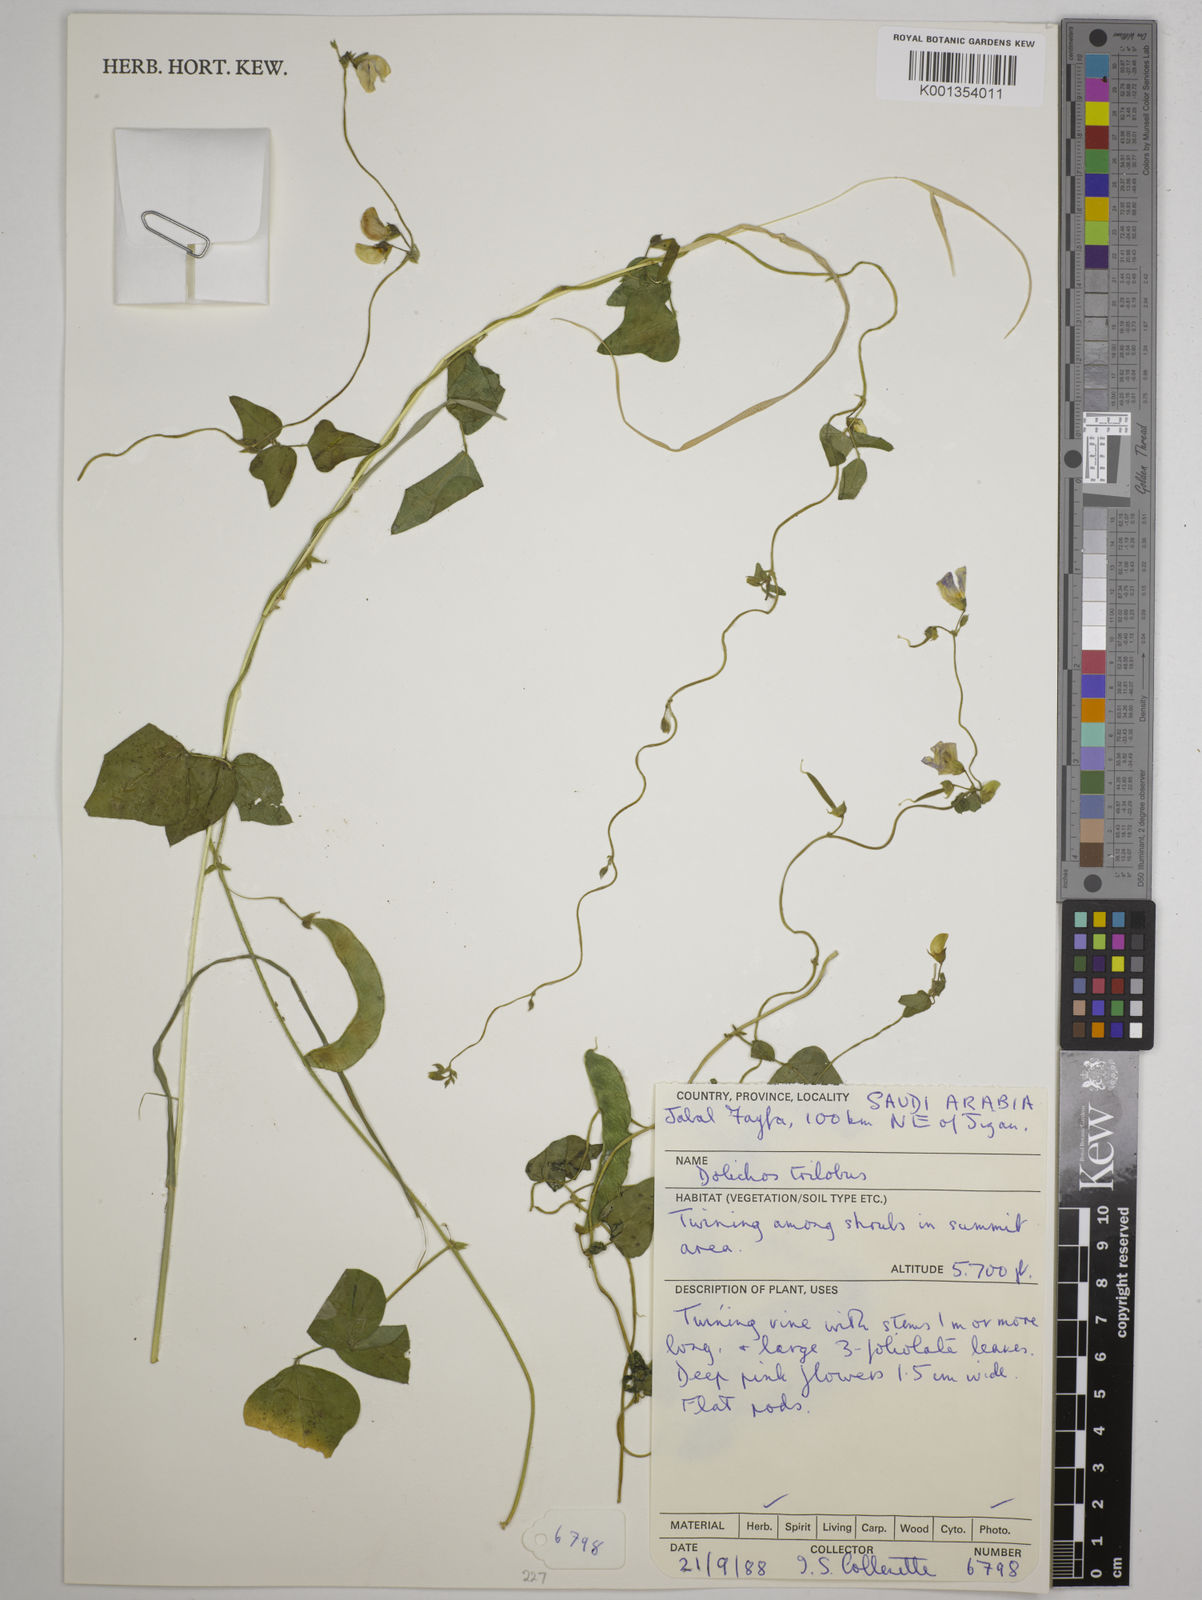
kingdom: Plantae
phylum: Tracheophyta
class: Magnoliopsida
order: Fabales
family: Fabaceae
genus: Dolichos
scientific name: Dolichos
